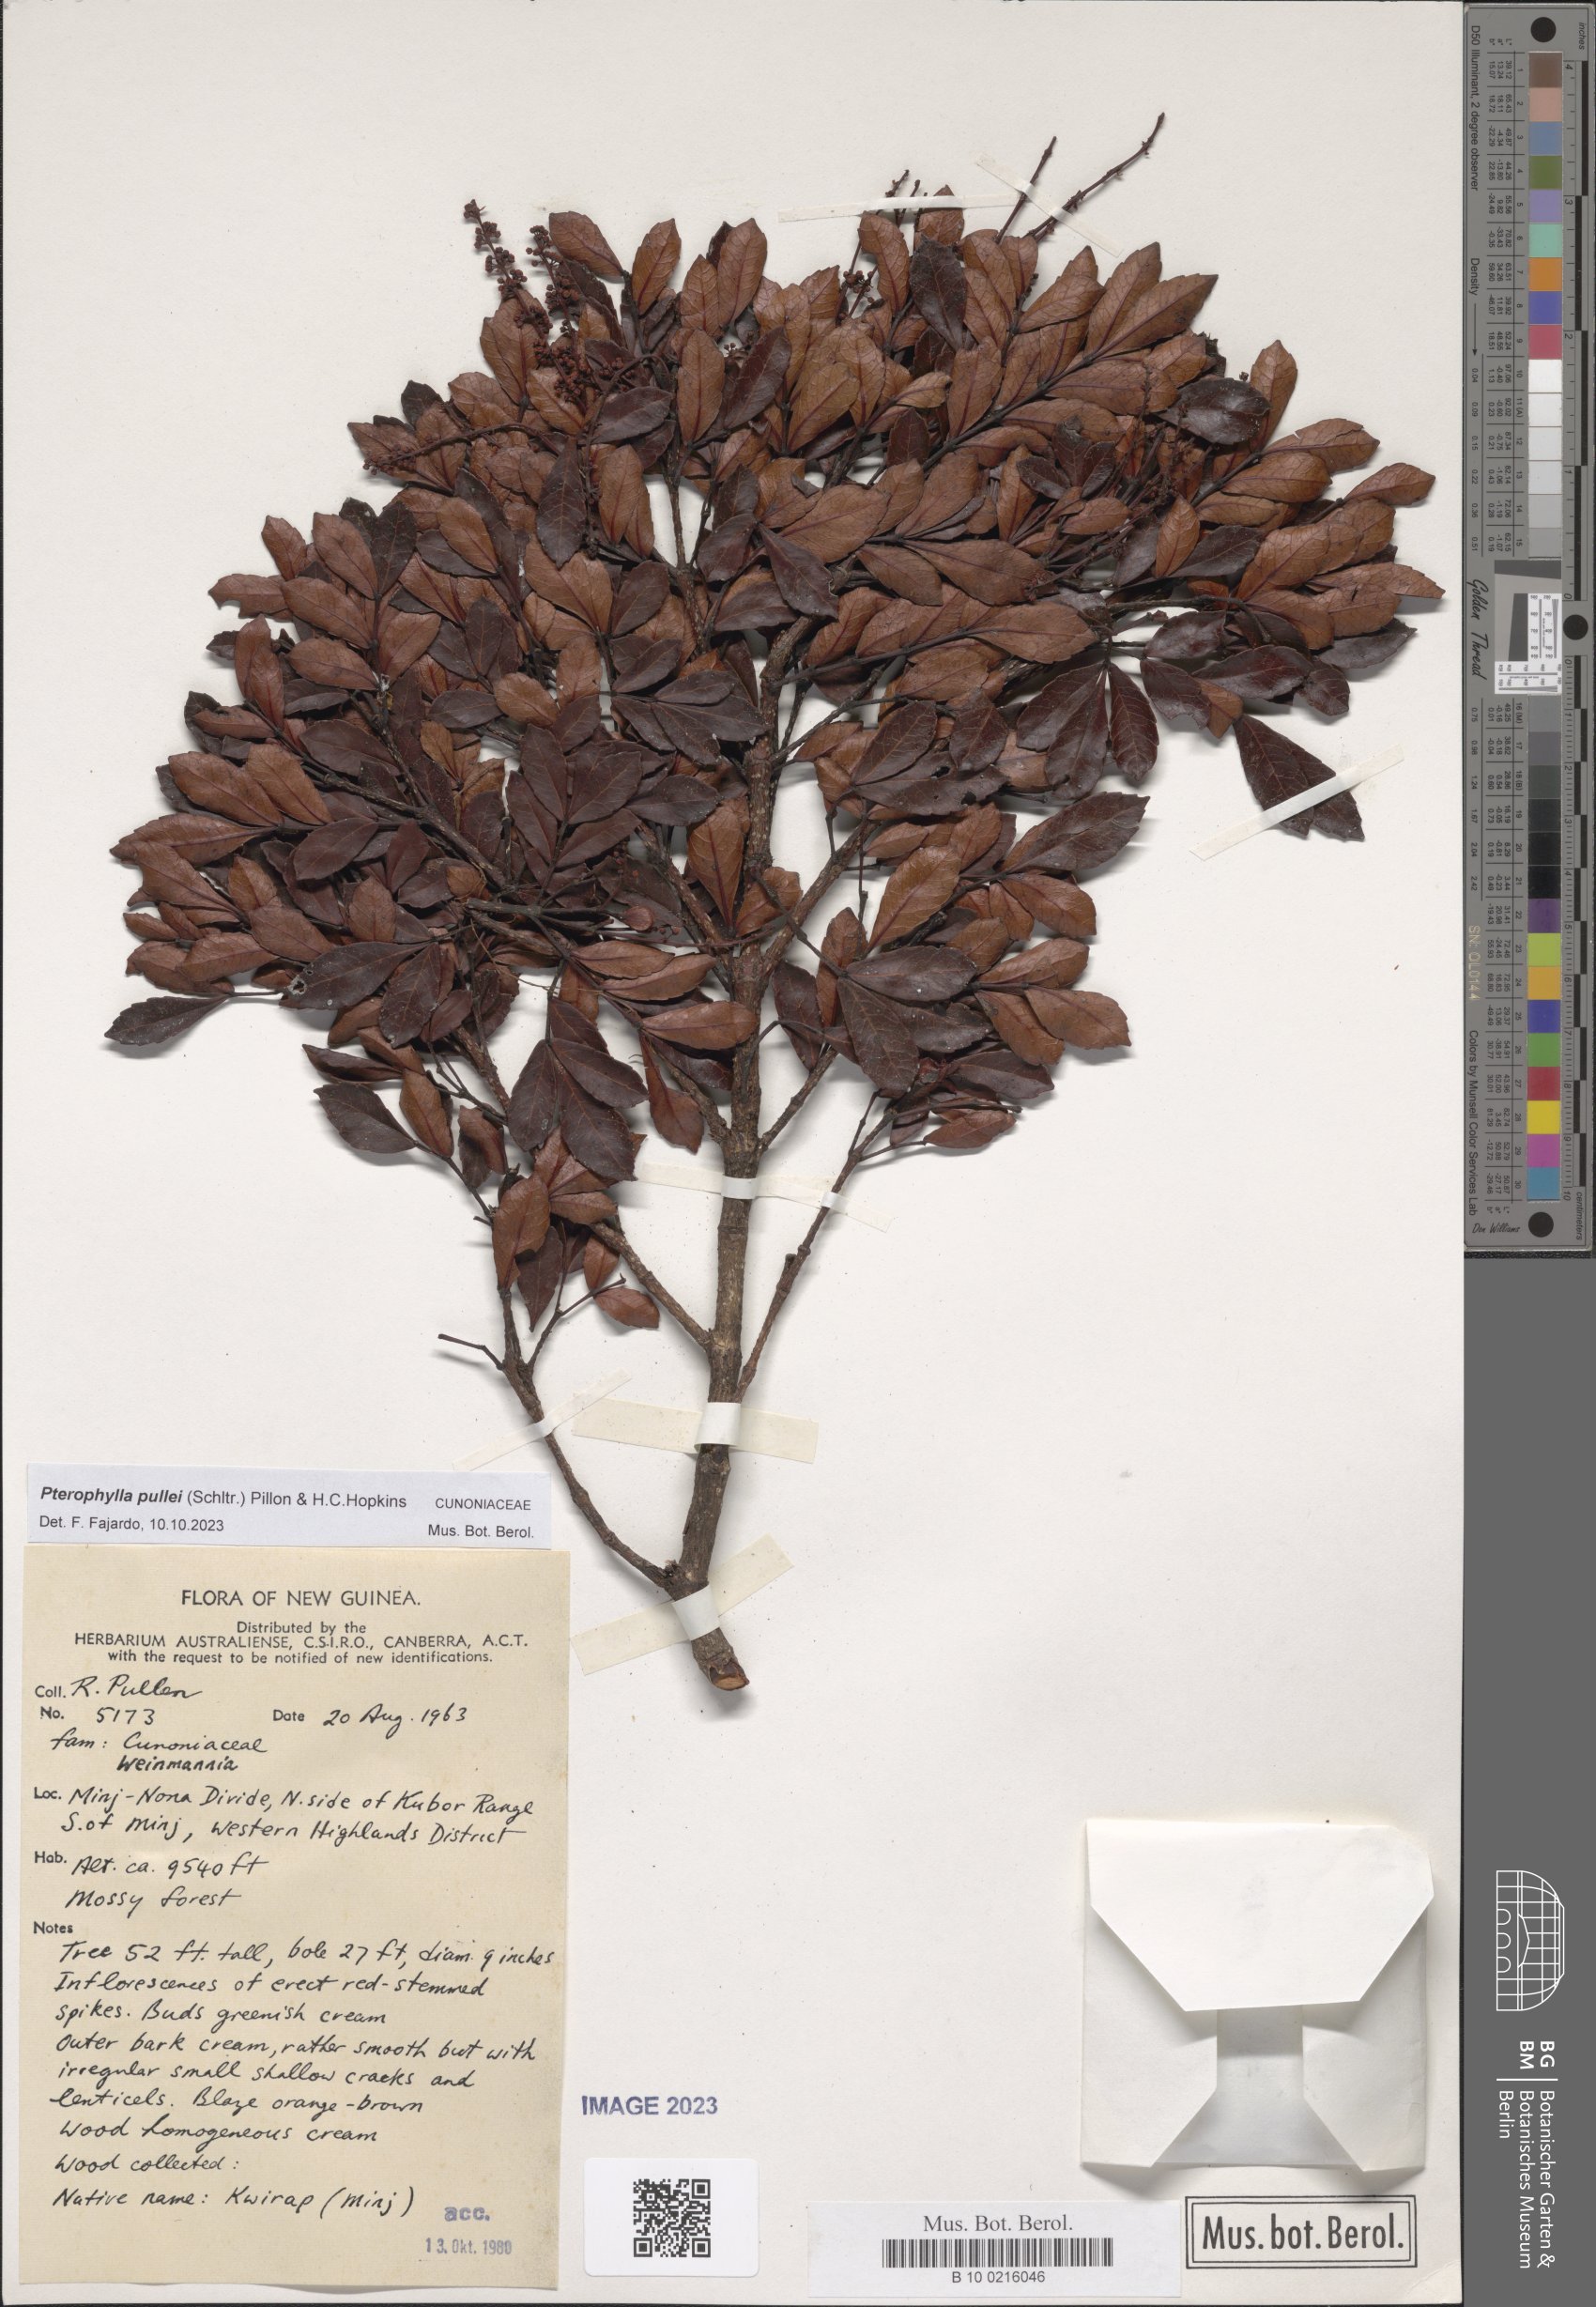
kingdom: Plantae
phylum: Tracheophyta
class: Magnoliopsida
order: Oxalidales
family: Cunoniaceae
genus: Pterophylla
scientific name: Pterophylla pullei
